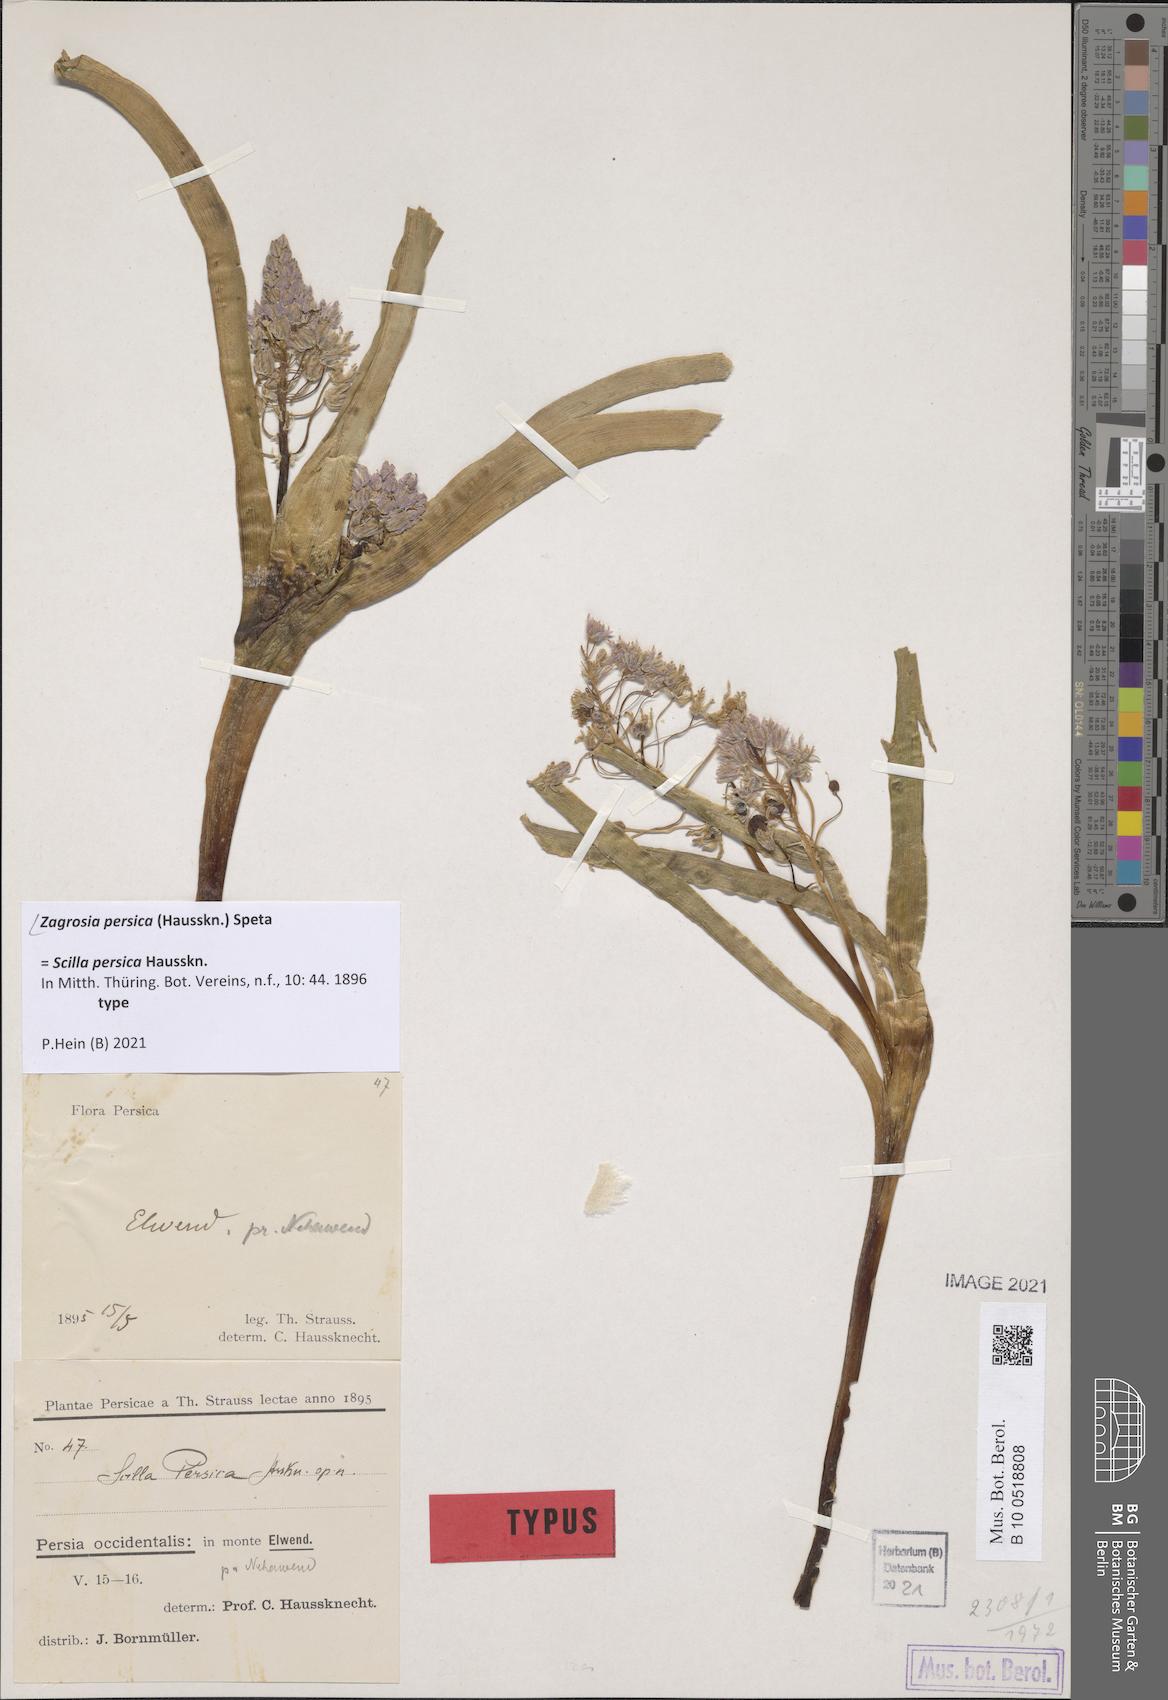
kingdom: Plantae
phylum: Tracheophyta
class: Liliopsida
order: Asparagales
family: Asparagaceae
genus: Zagrosia
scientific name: Zagrosia persica
